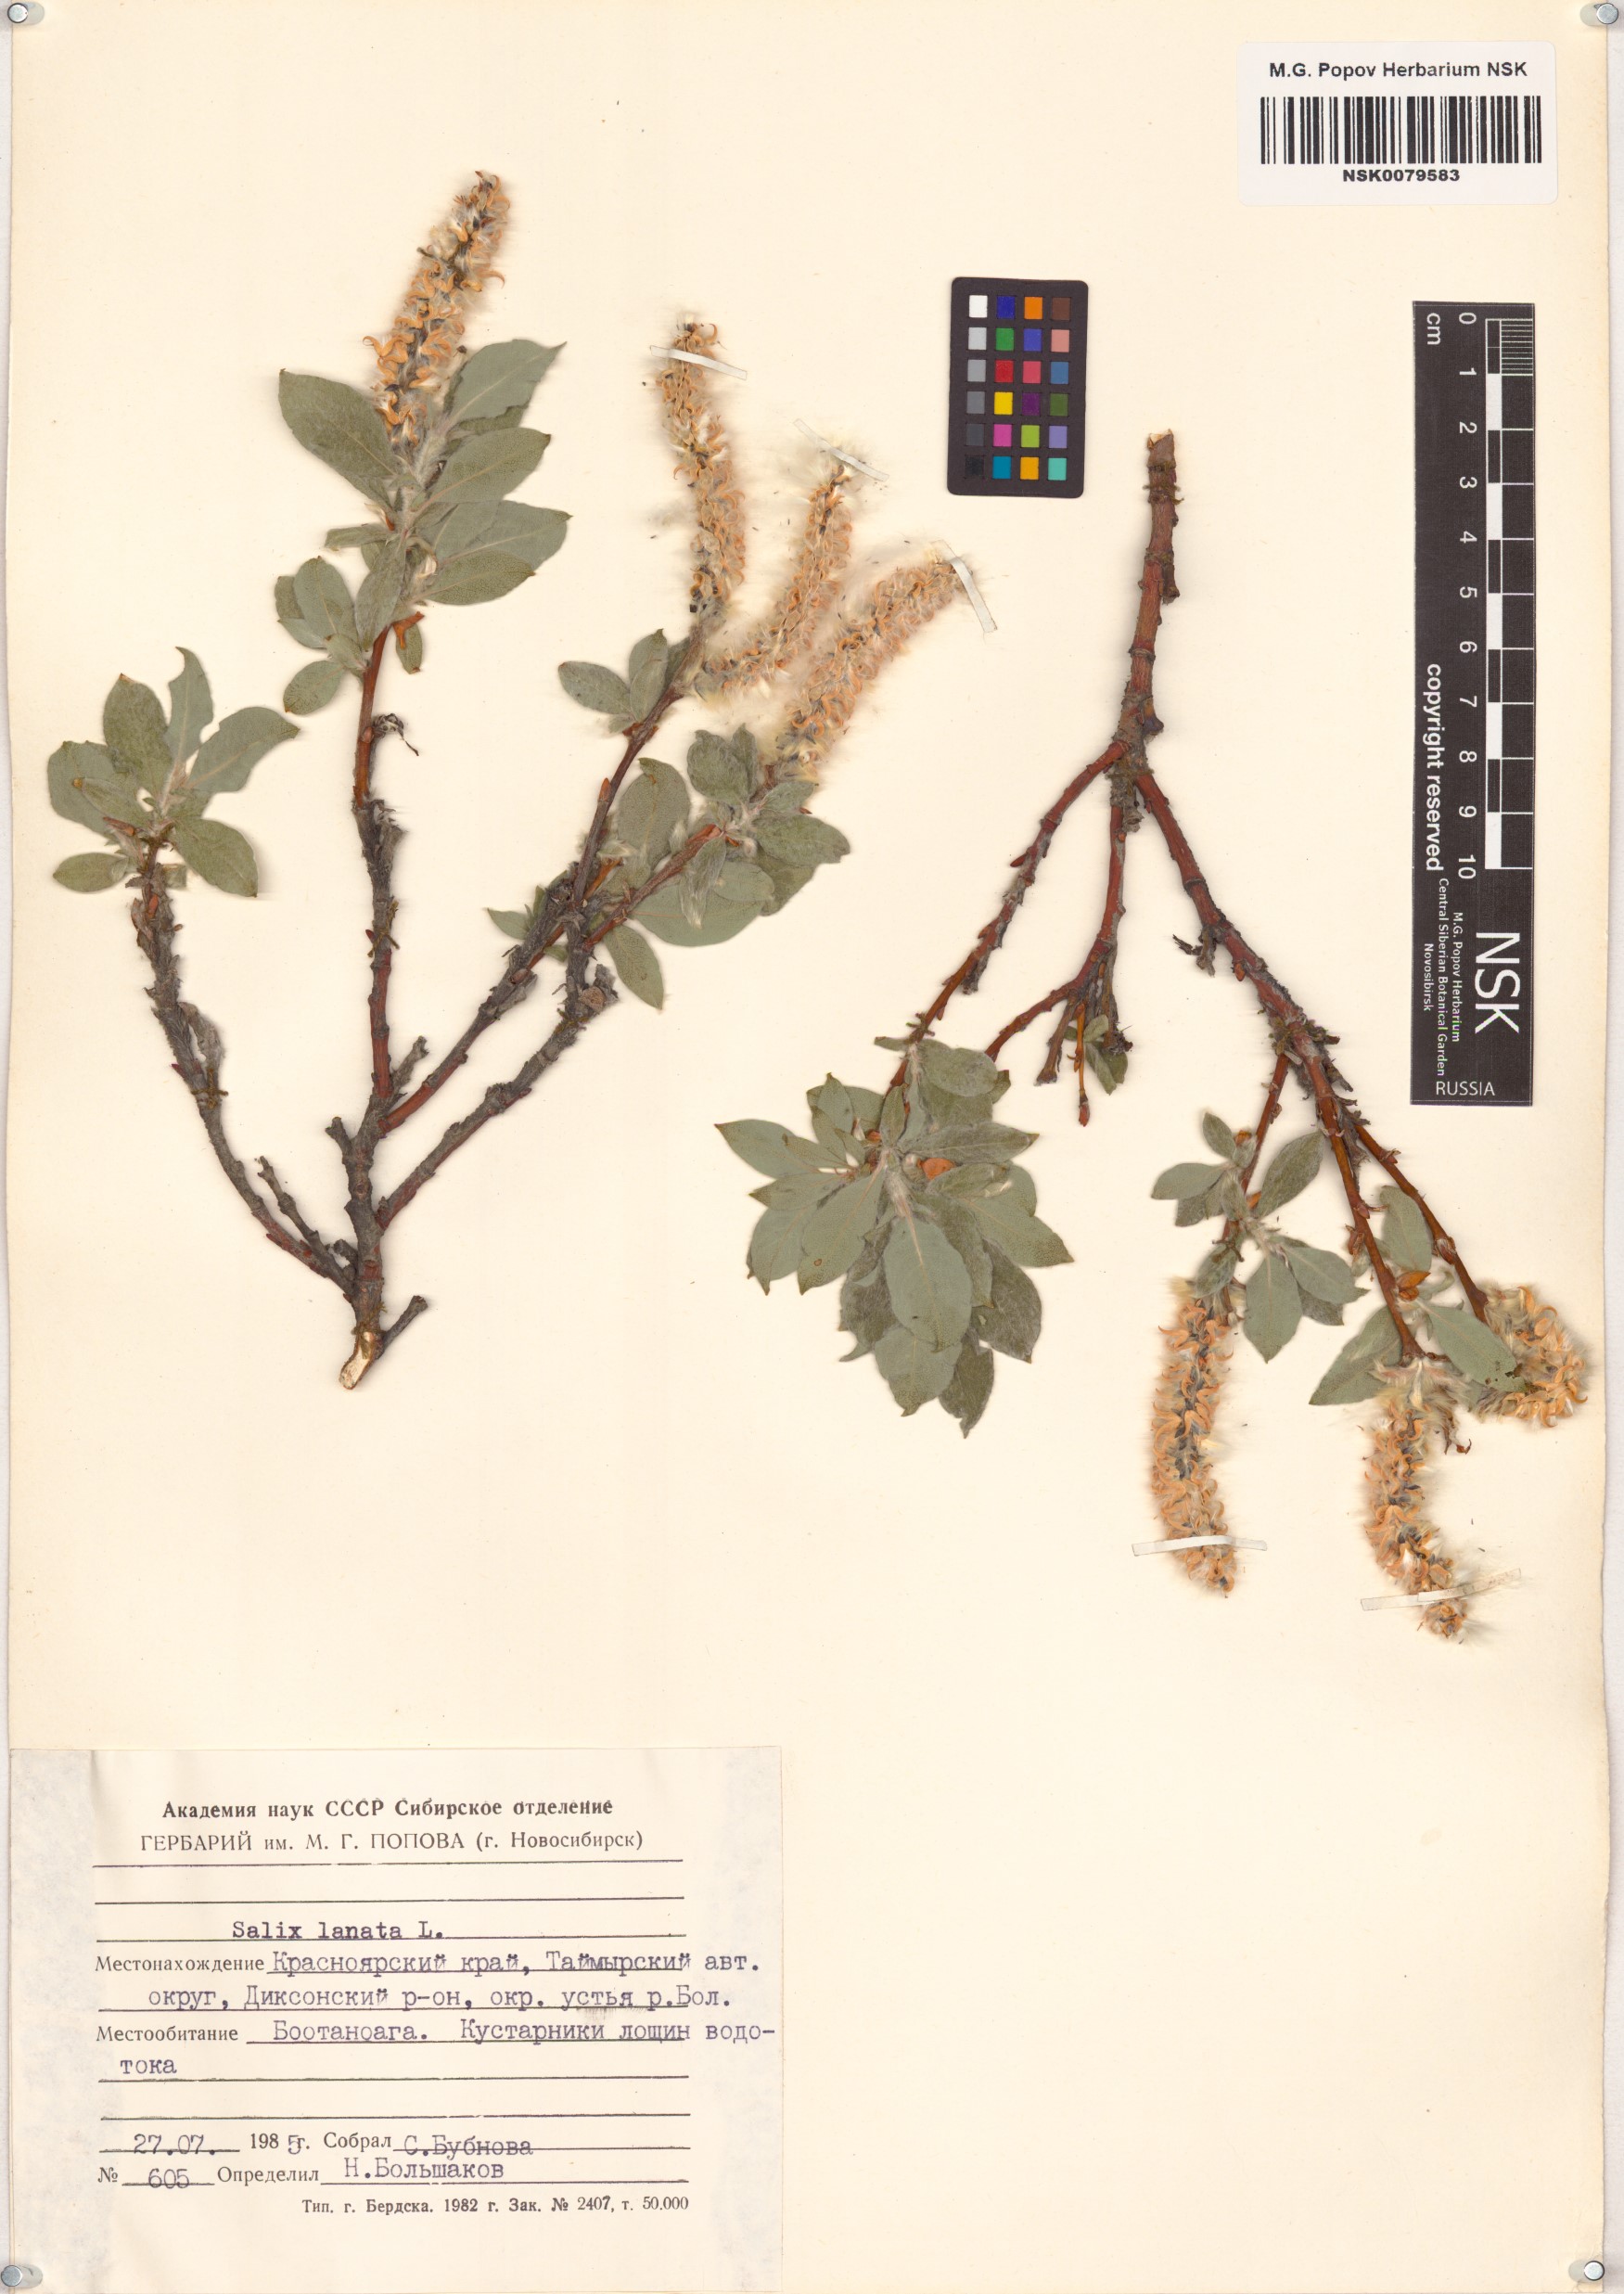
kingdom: Plantae
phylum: Tracheophyta
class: Magnoliopsida
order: Malpighiales
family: Salicaceae
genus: Salix
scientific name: Salix lanata
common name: Woolly willow
